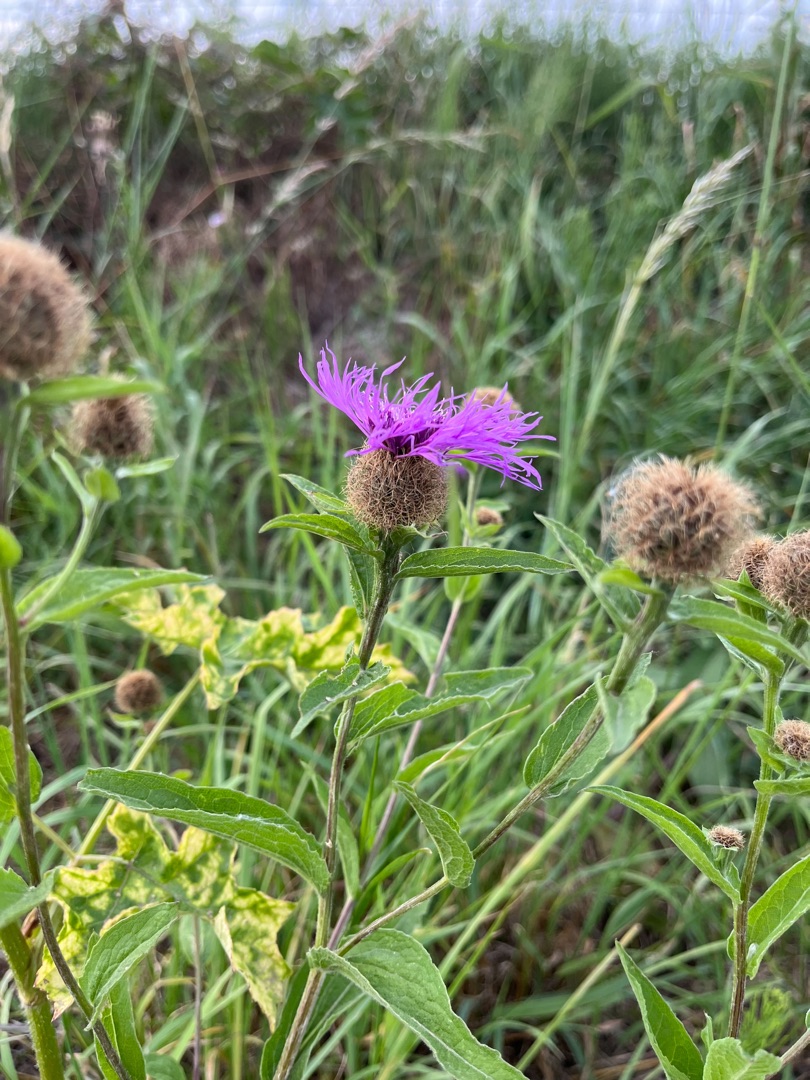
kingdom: Plantae
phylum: Tracheophyta
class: Magnoliopsida
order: Asterales
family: Asteraceae
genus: Centaurea
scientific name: Centaurea pseudophrygia
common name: Fjer-knopurt
